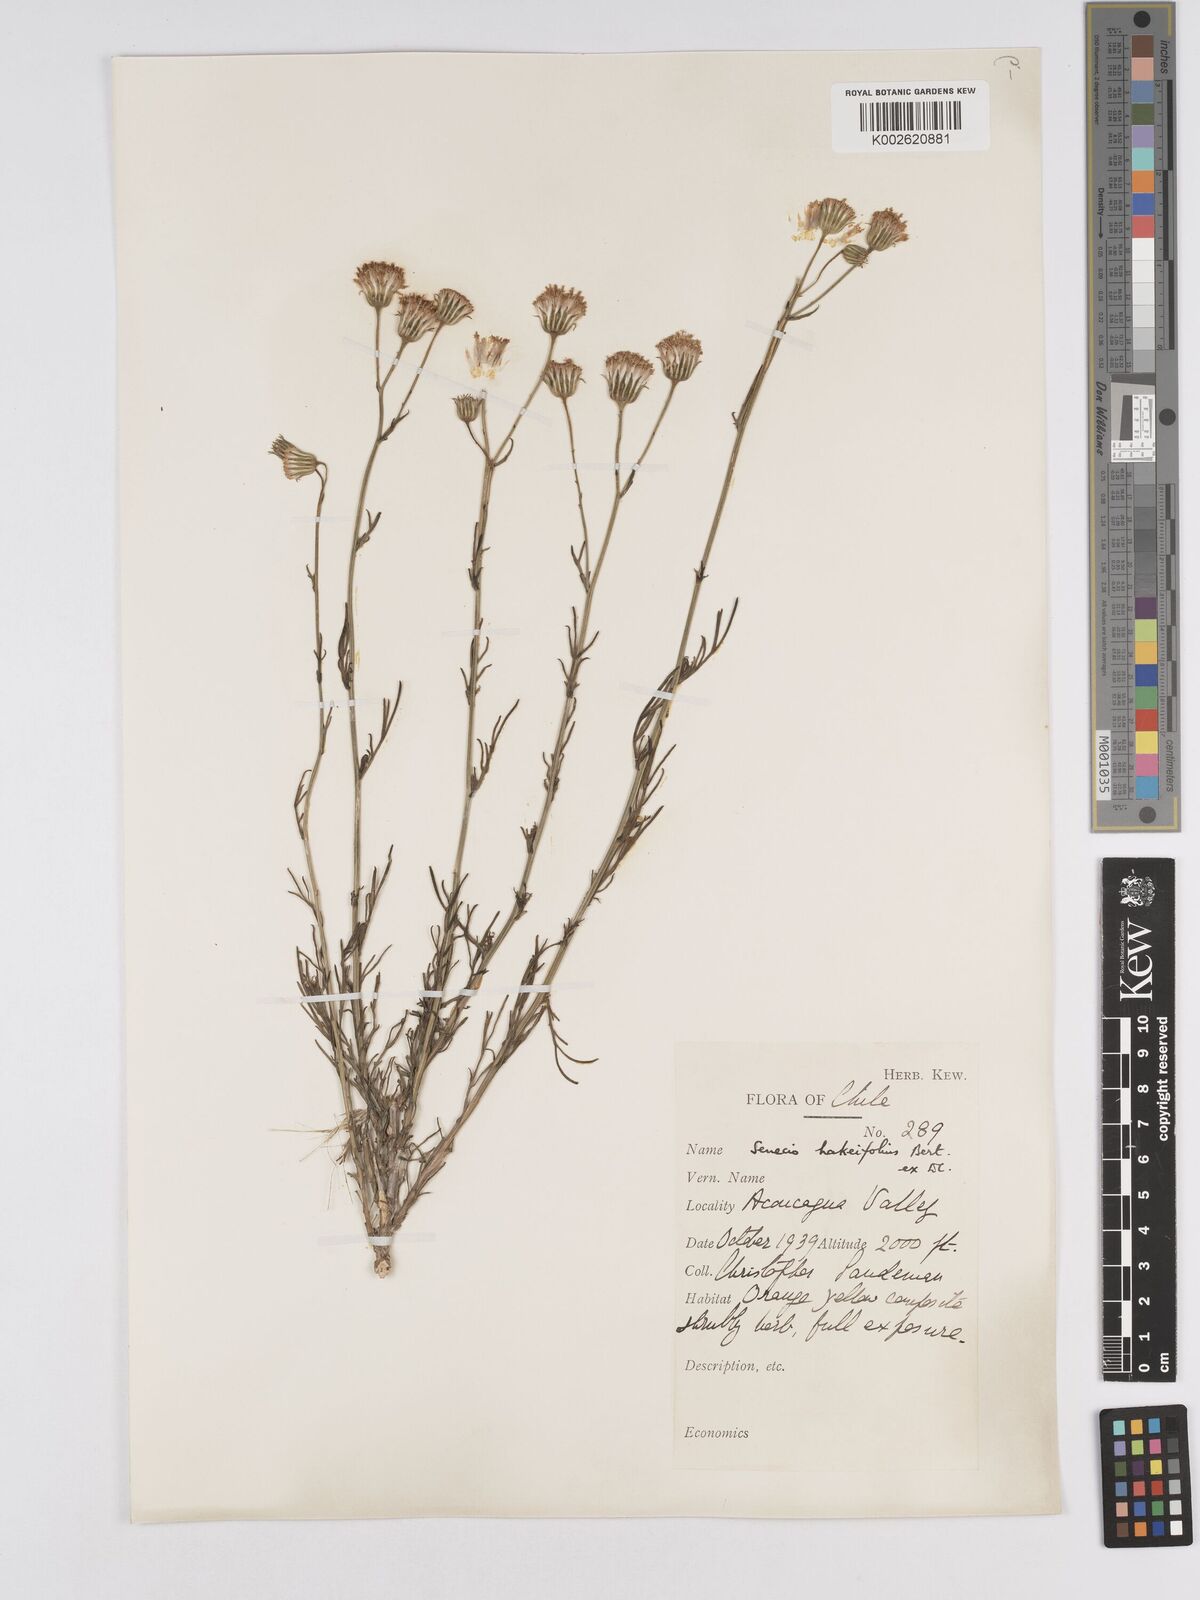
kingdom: Plantae
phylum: Tracheophyta
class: Magnoliopsida
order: Asterales
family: Asteraceae
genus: Senecio
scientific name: Senecio hakeifolius
